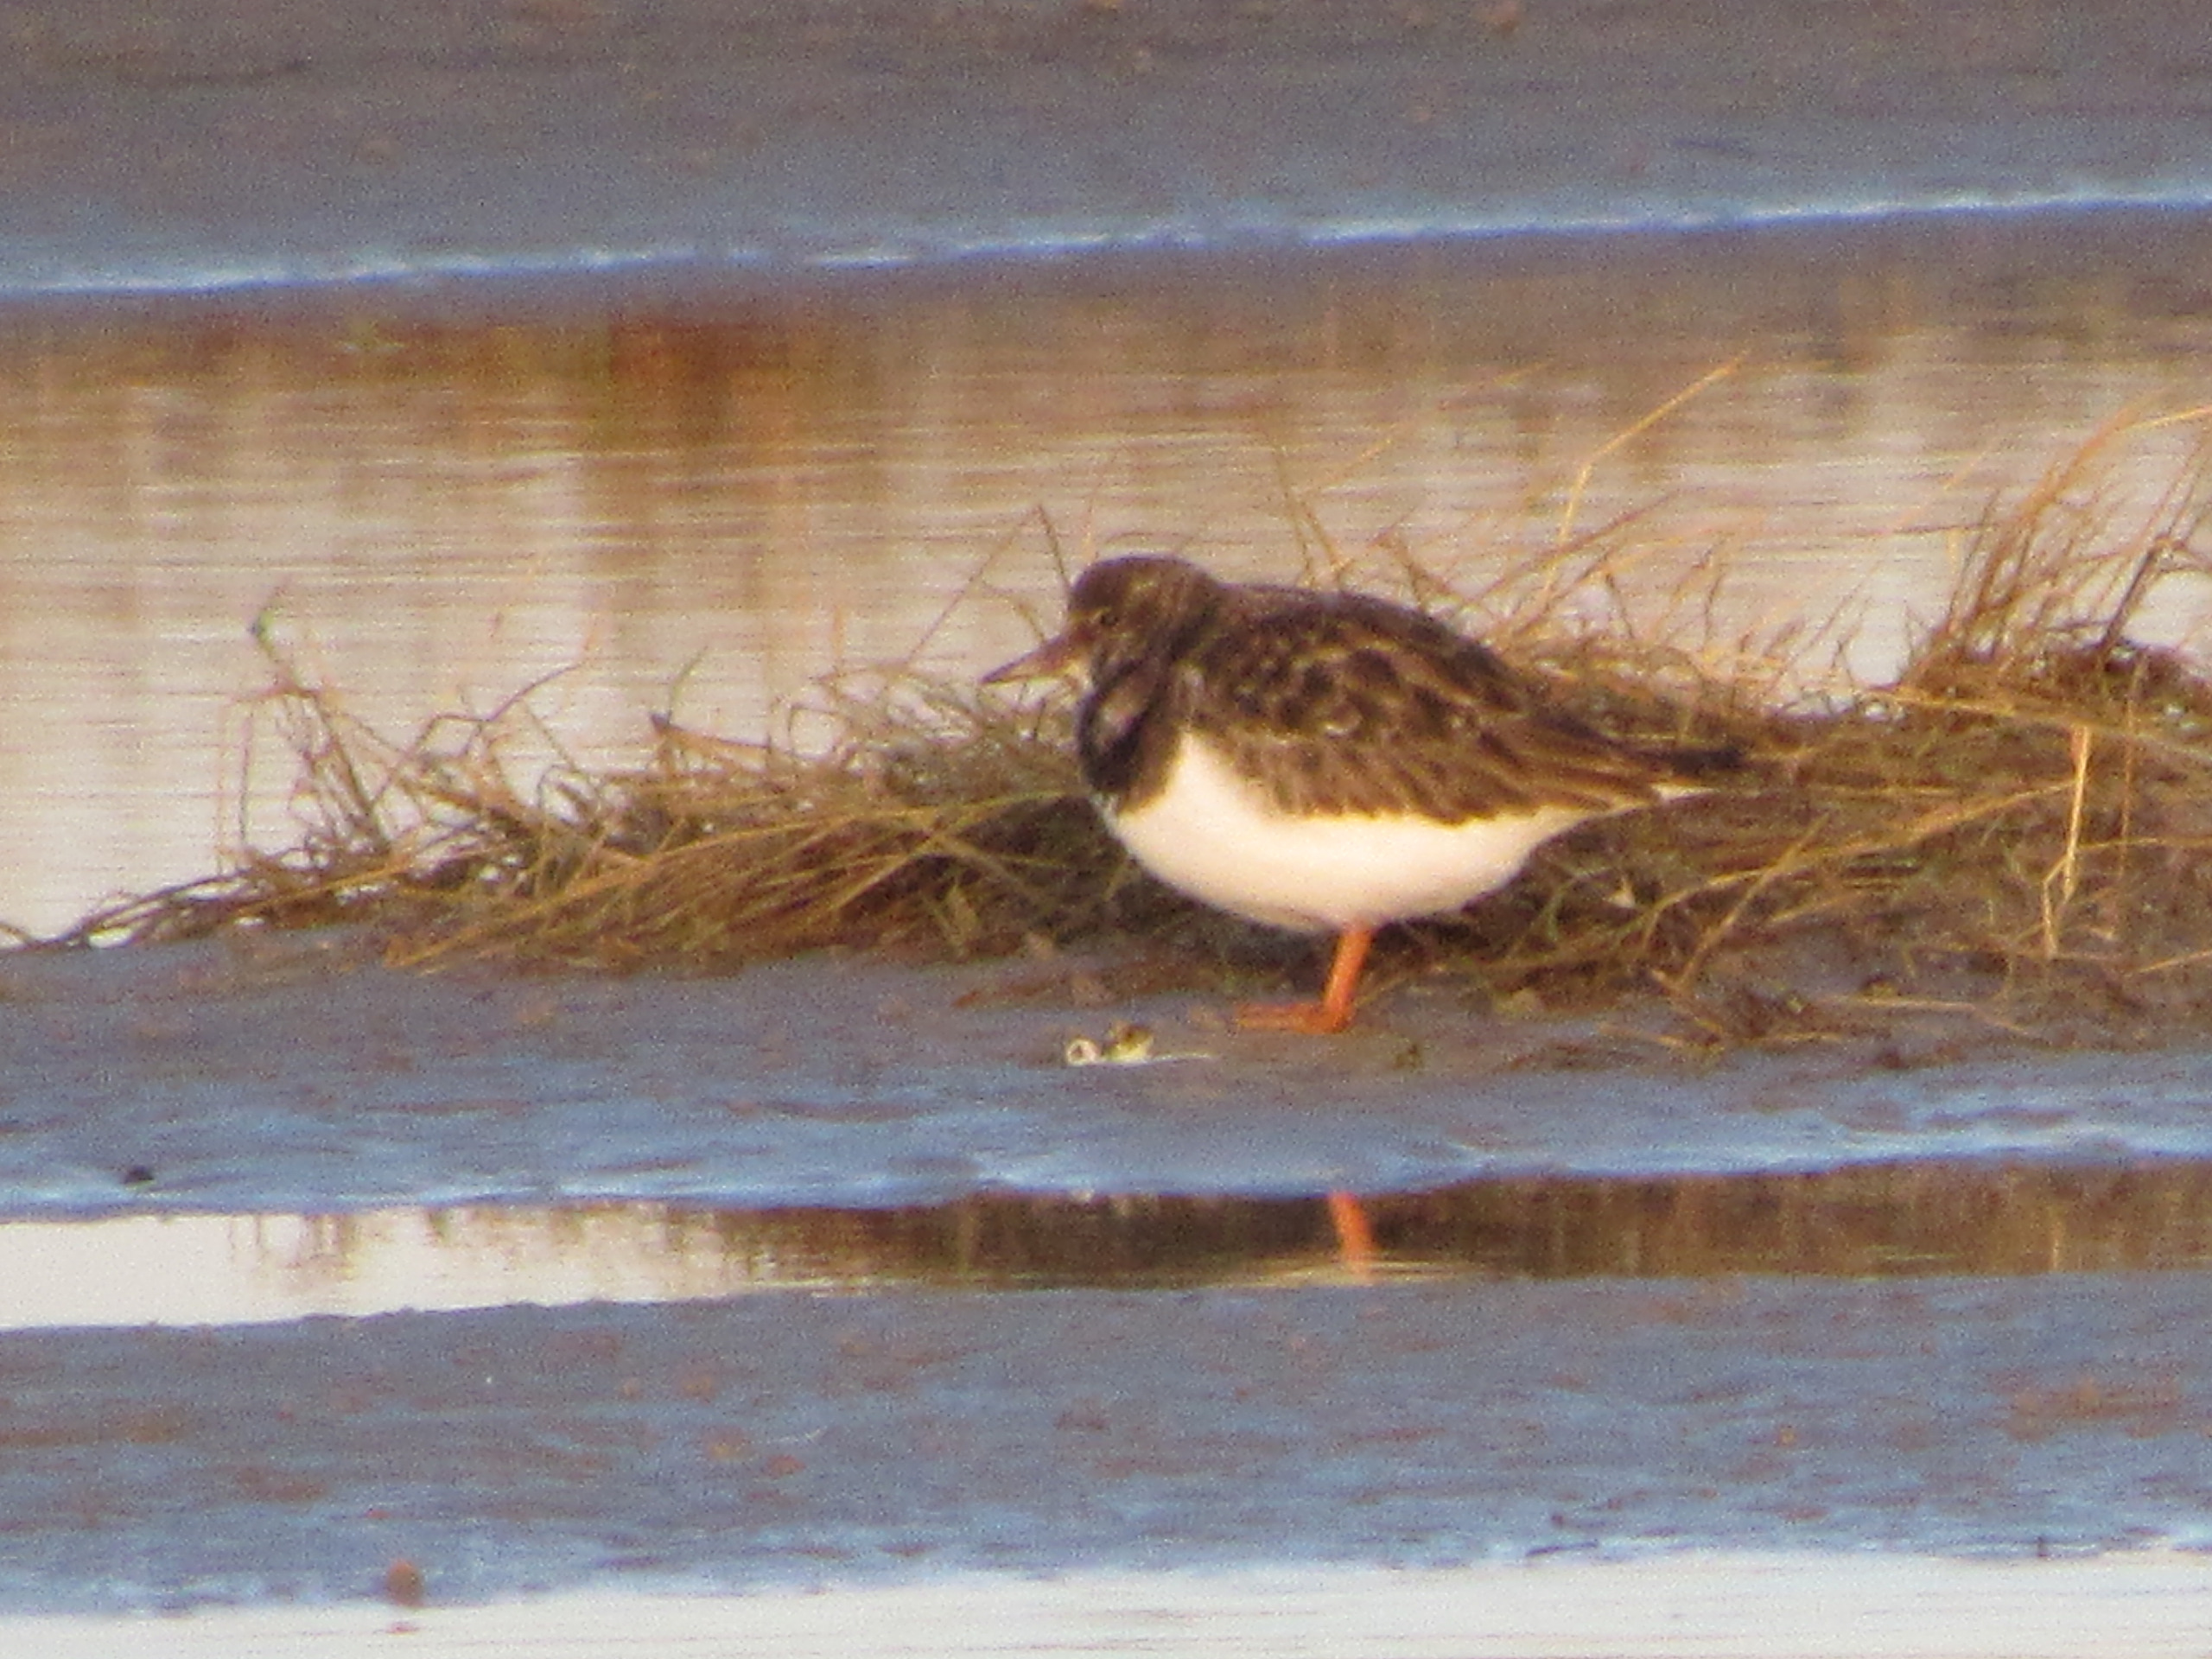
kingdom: Animalia
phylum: Chordata
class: Aves
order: Charadriiformes
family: Scolopacidae
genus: Arenaria
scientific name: Arenaria interpres
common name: Stenvender
